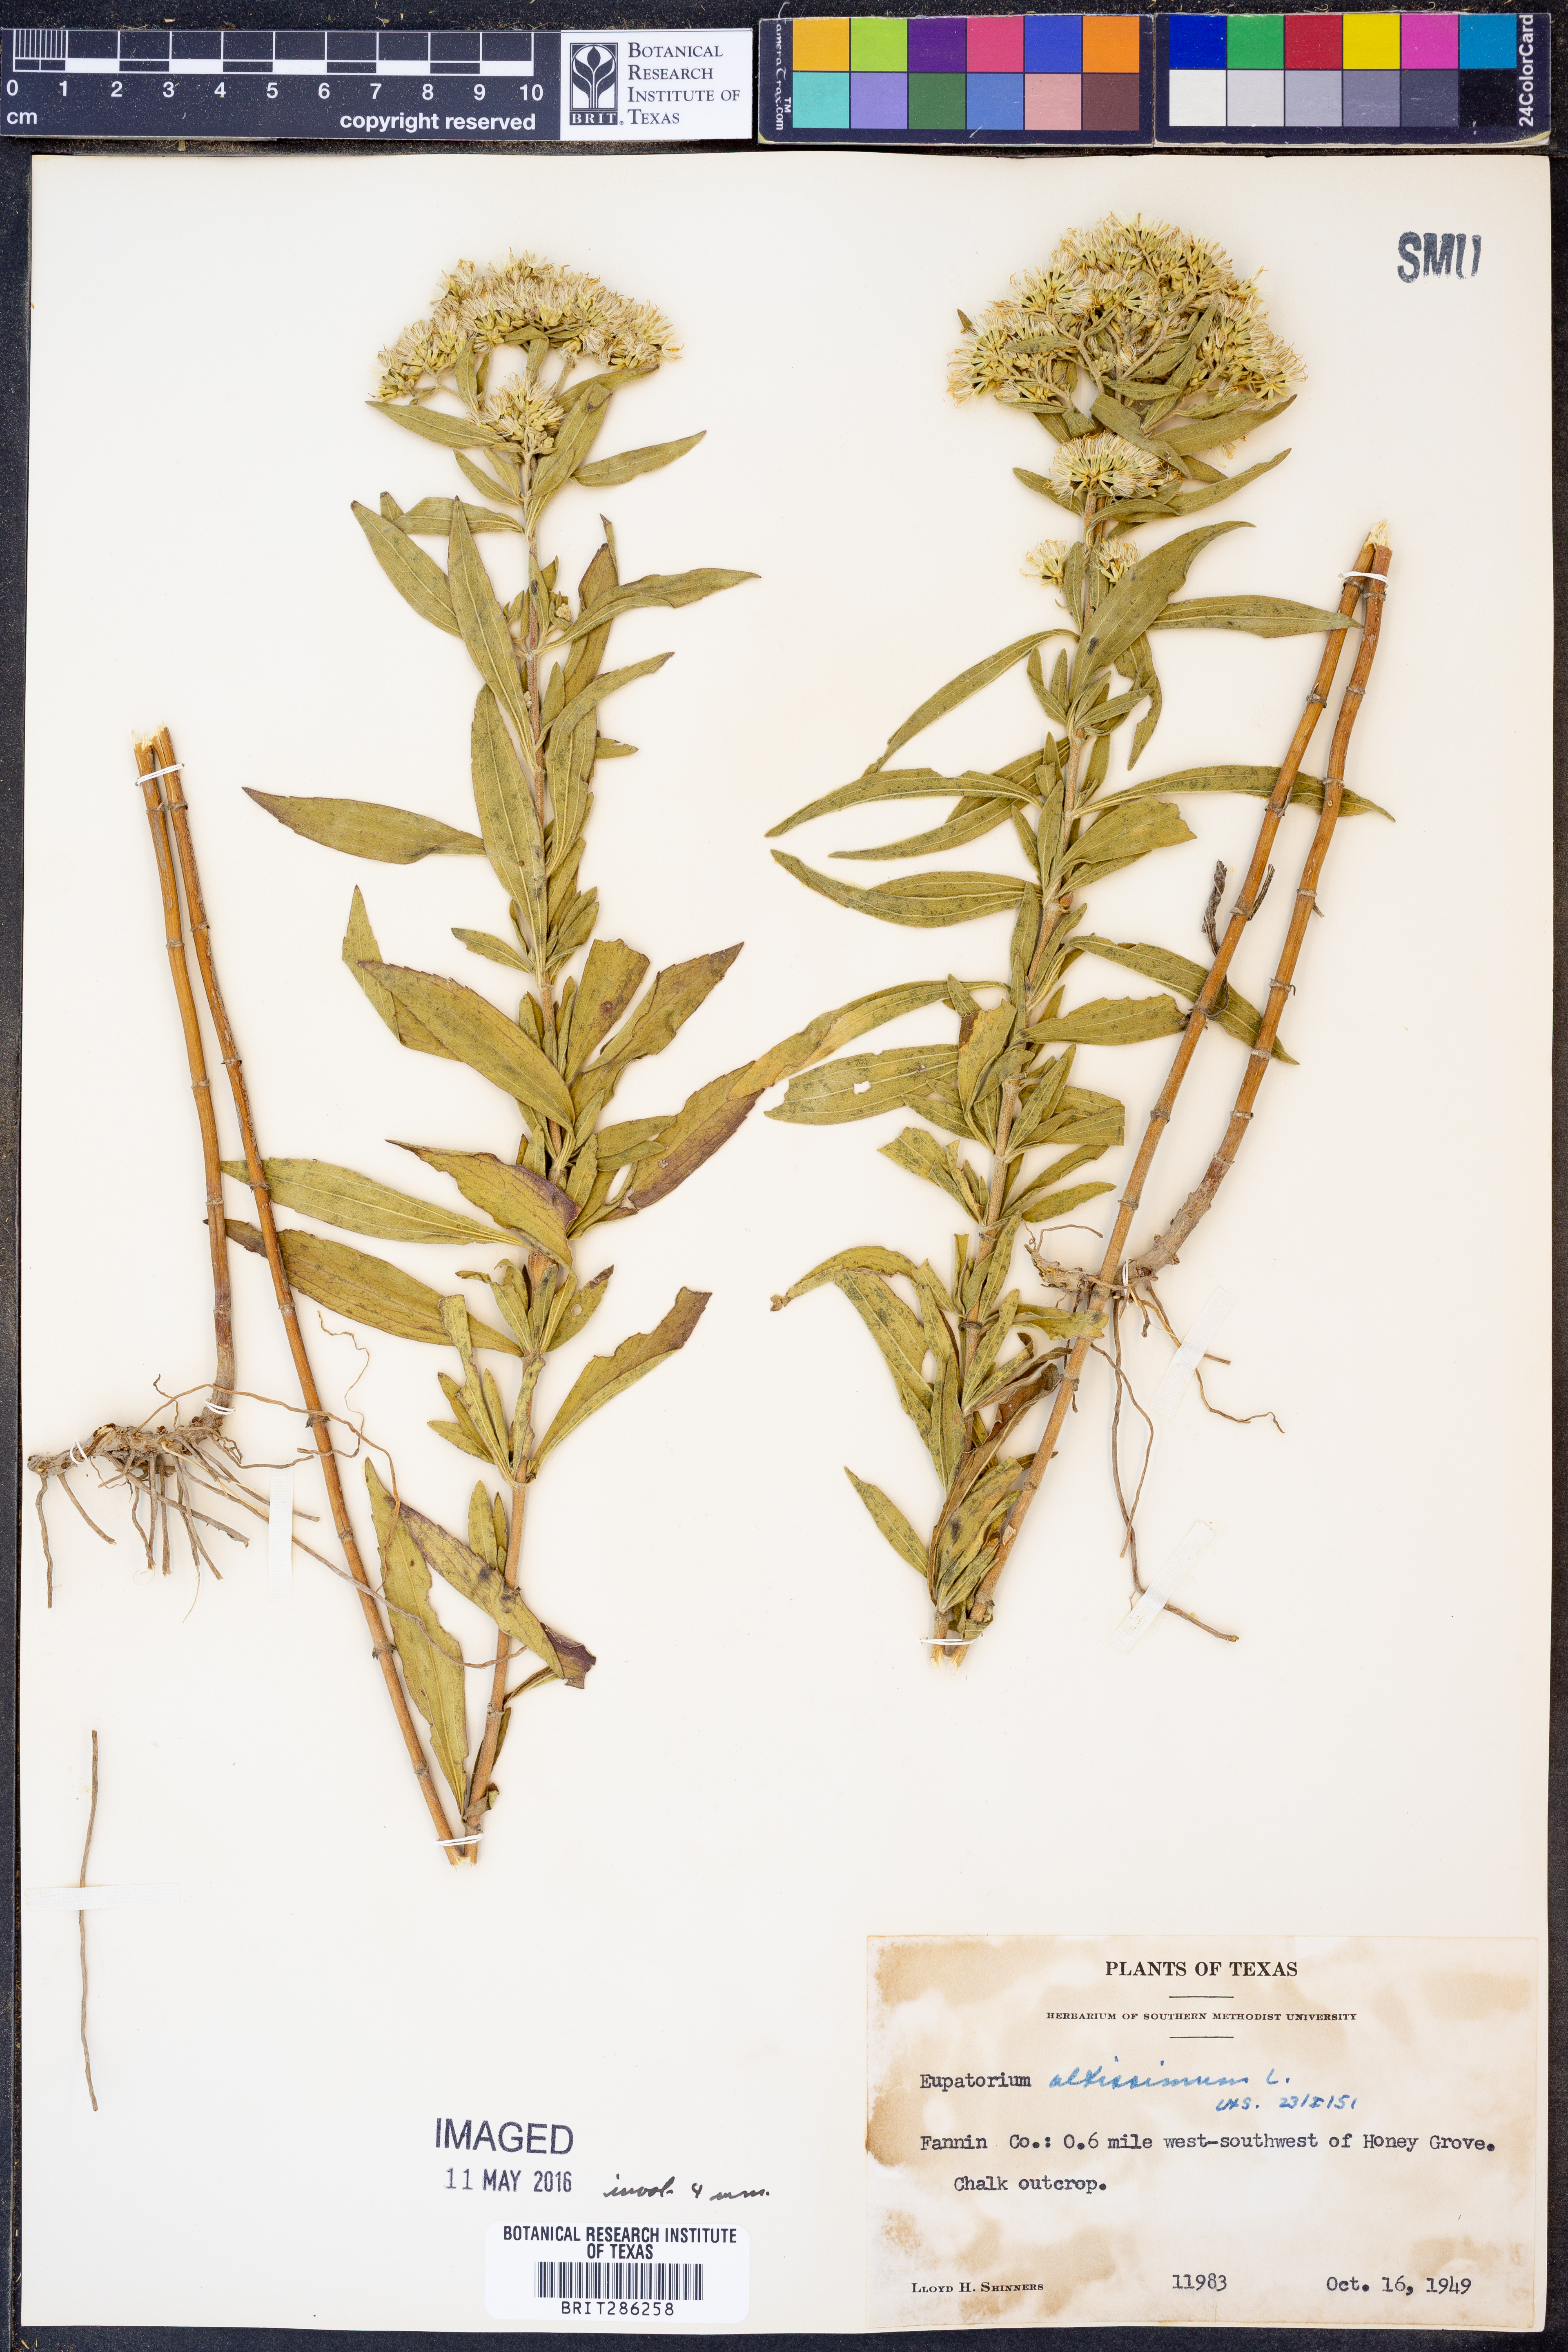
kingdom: Plantae
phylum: Tracheophyta
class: Magnoliopsida
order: Asterales
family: Asteraceae
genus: Eupatorium
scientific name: Eupatorium altissimum
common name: Tall thoroughwort
